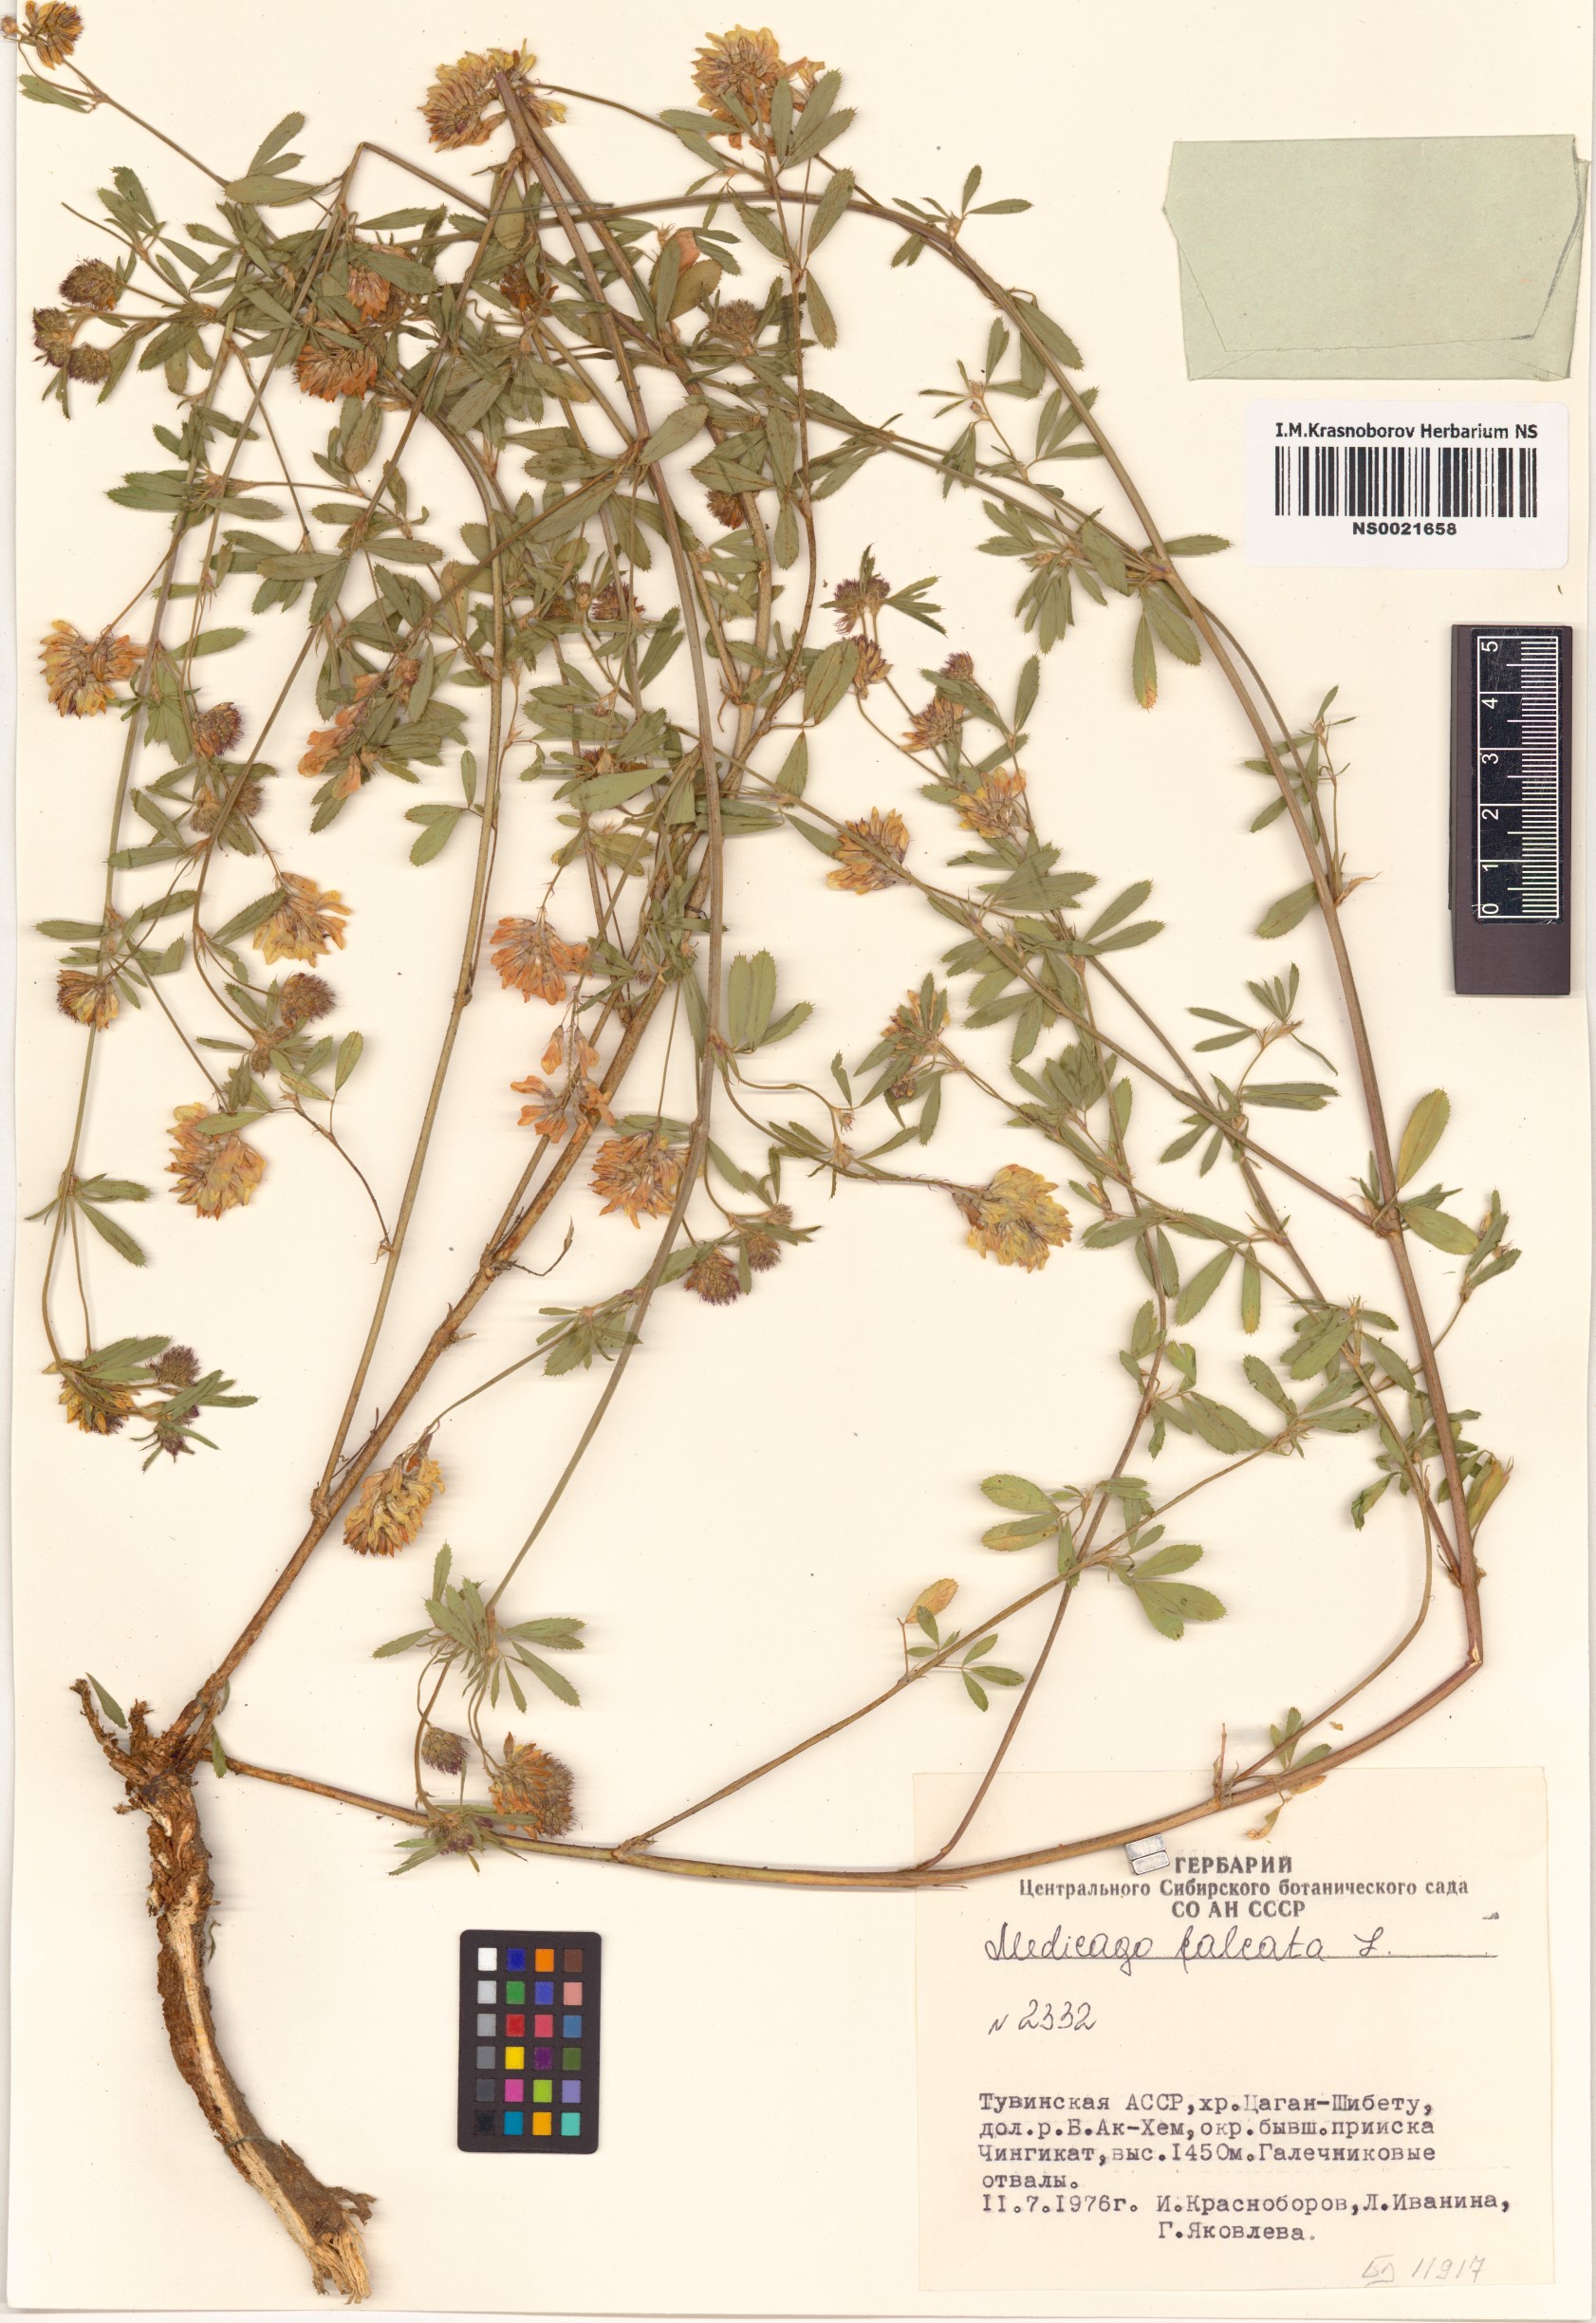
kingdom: Plantae
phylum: Tracheophyta
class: Magnoliopsida
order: Fabales
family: Fabaceae
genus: Medicago
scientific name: Medicago falcata
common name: Sickle medick
